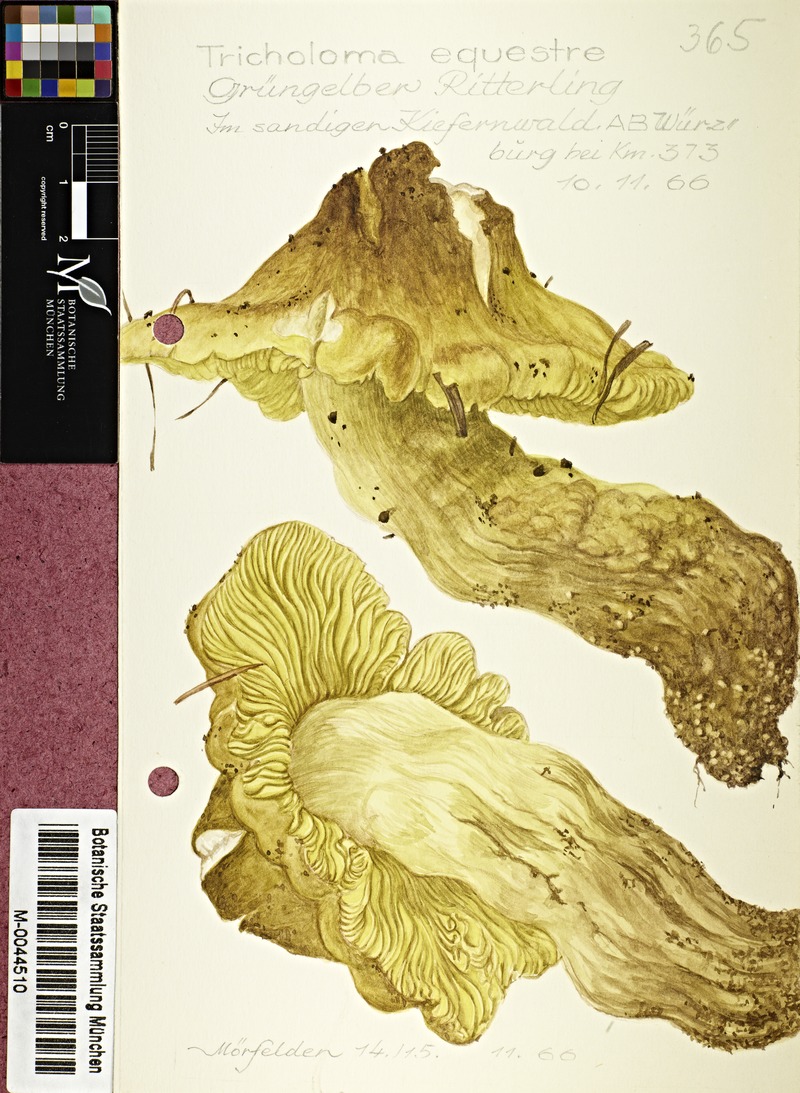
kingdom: Fungi
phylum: Basidiomycota
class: Agaricomycetes
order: Agaricales
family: Tricholomataceae
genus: Tricholoma
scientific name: Tricholoma equestre
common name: Yellow knight
